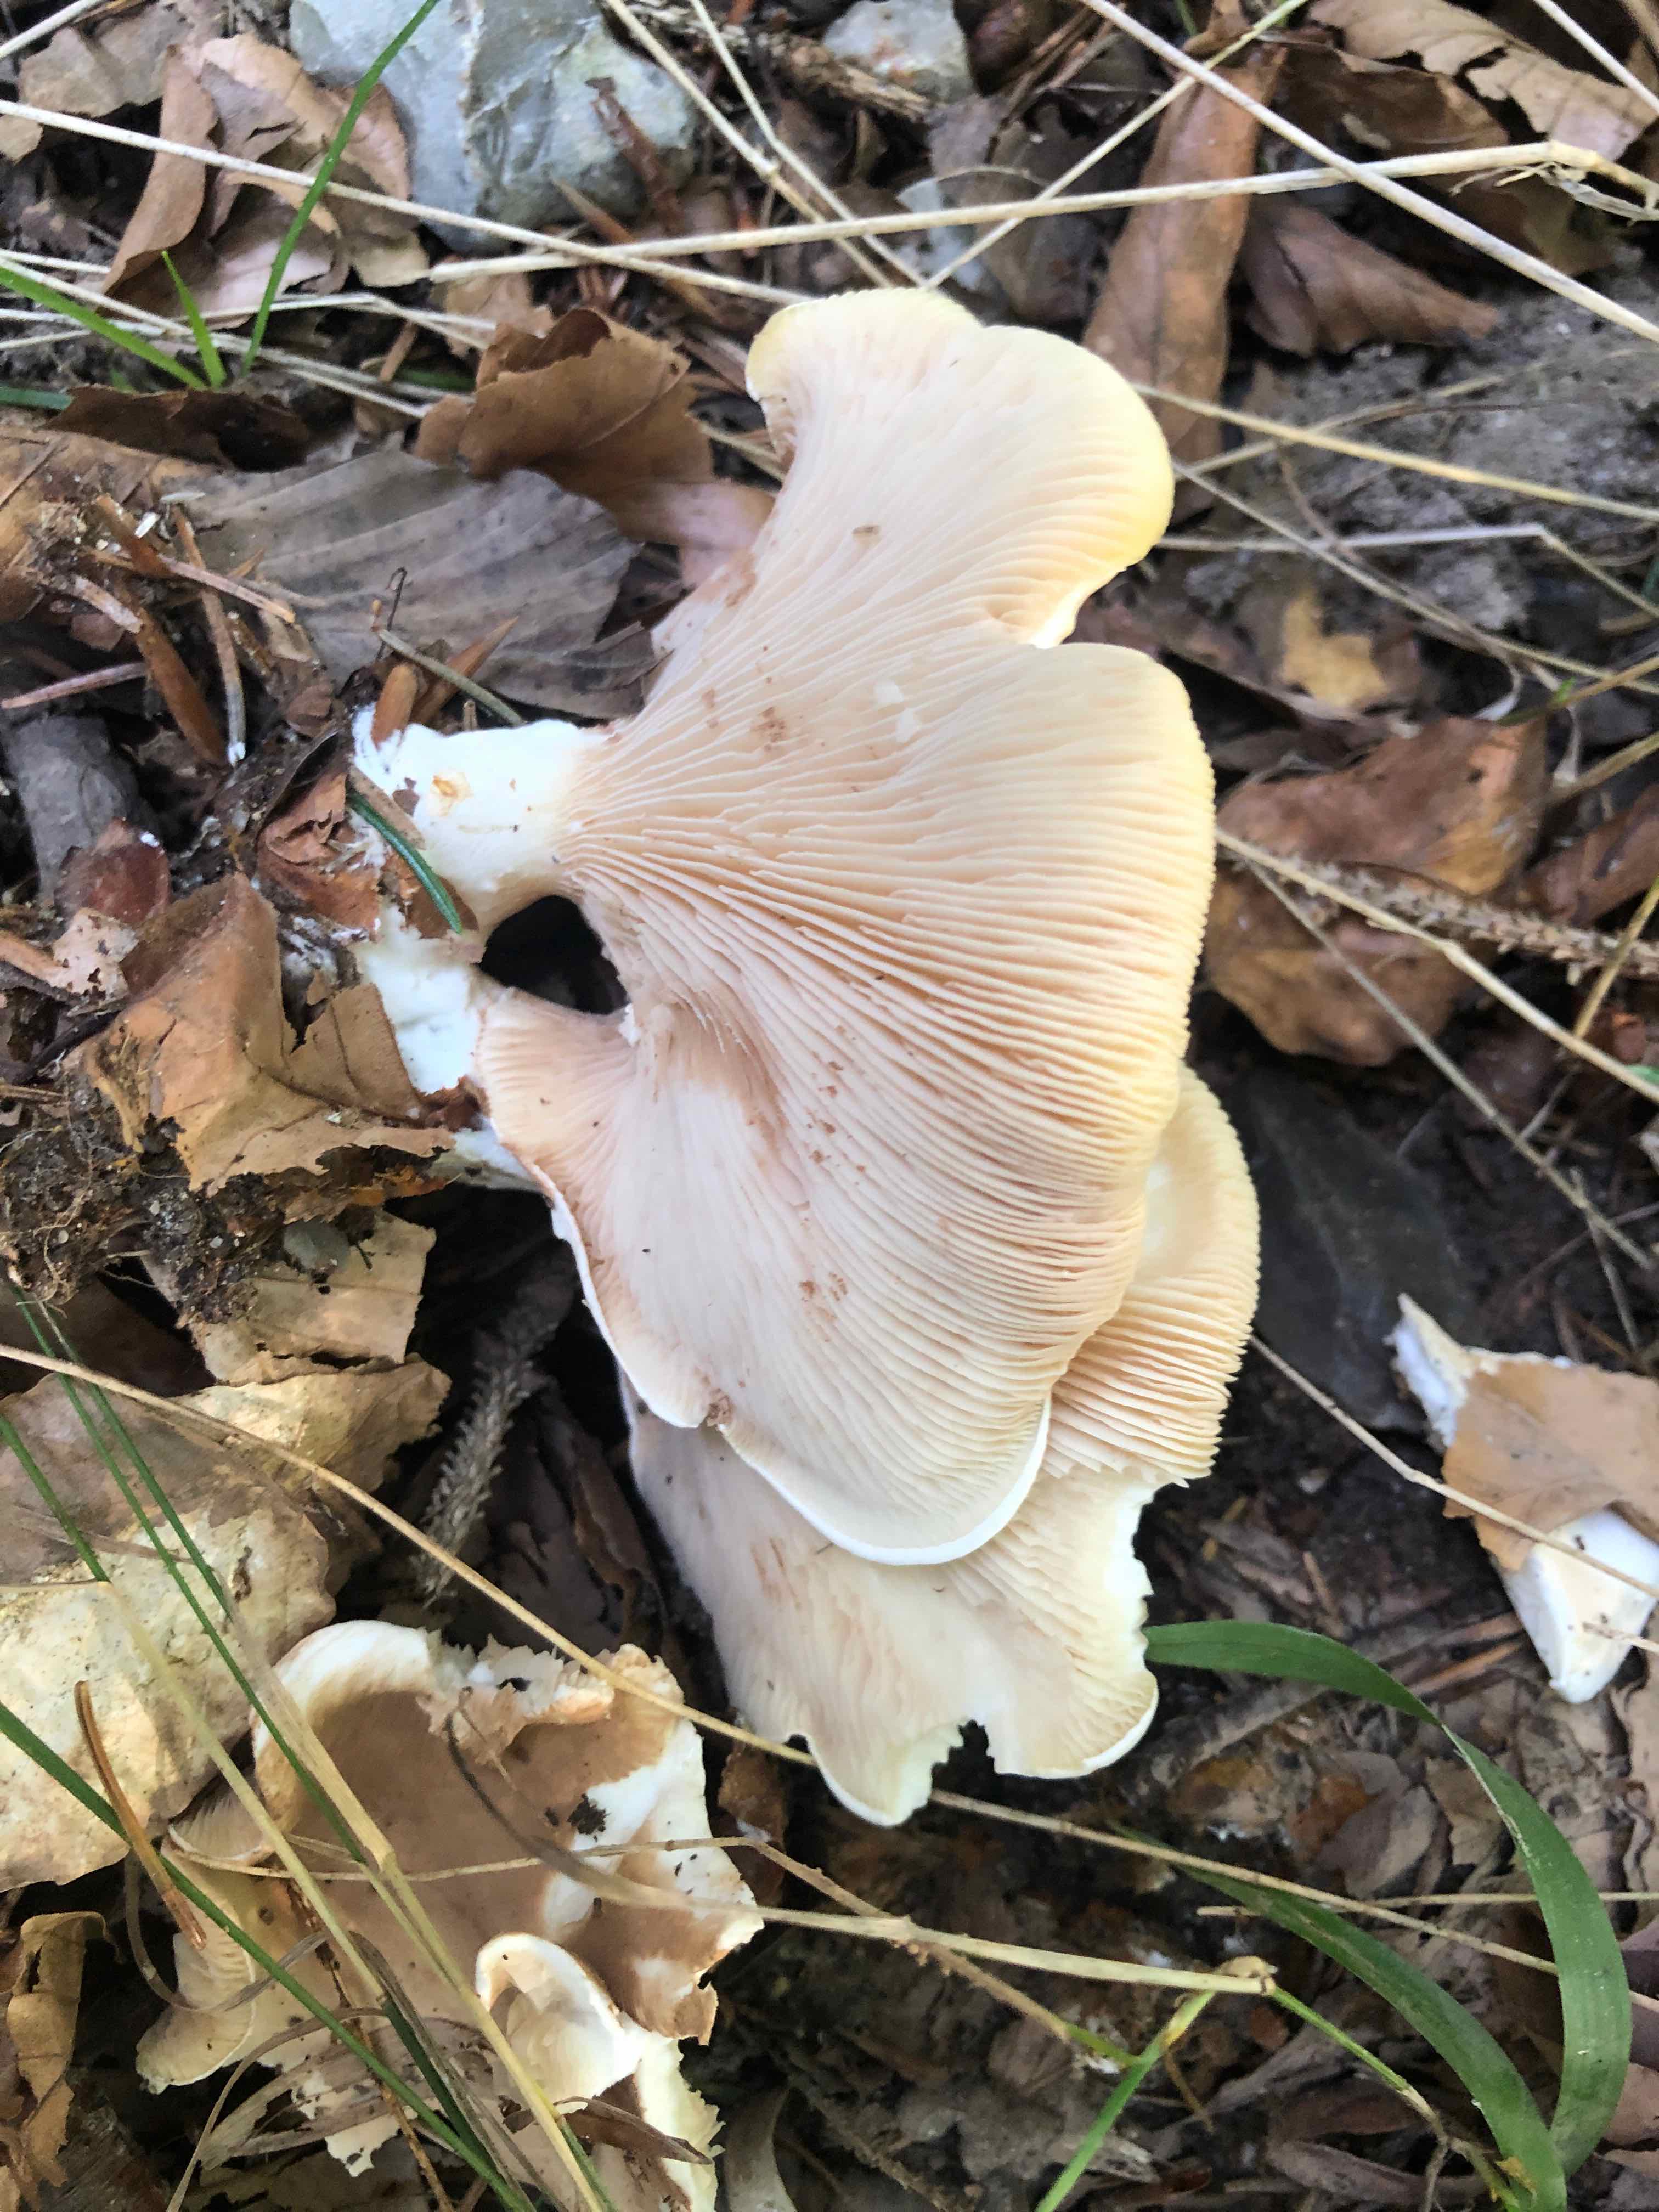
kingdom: Fungi
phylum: Basidiomycota
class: Agaricomycetes
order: Agaricales
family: Entolomataceae
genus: Clitopilus
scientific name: Clitopilus prunulus
